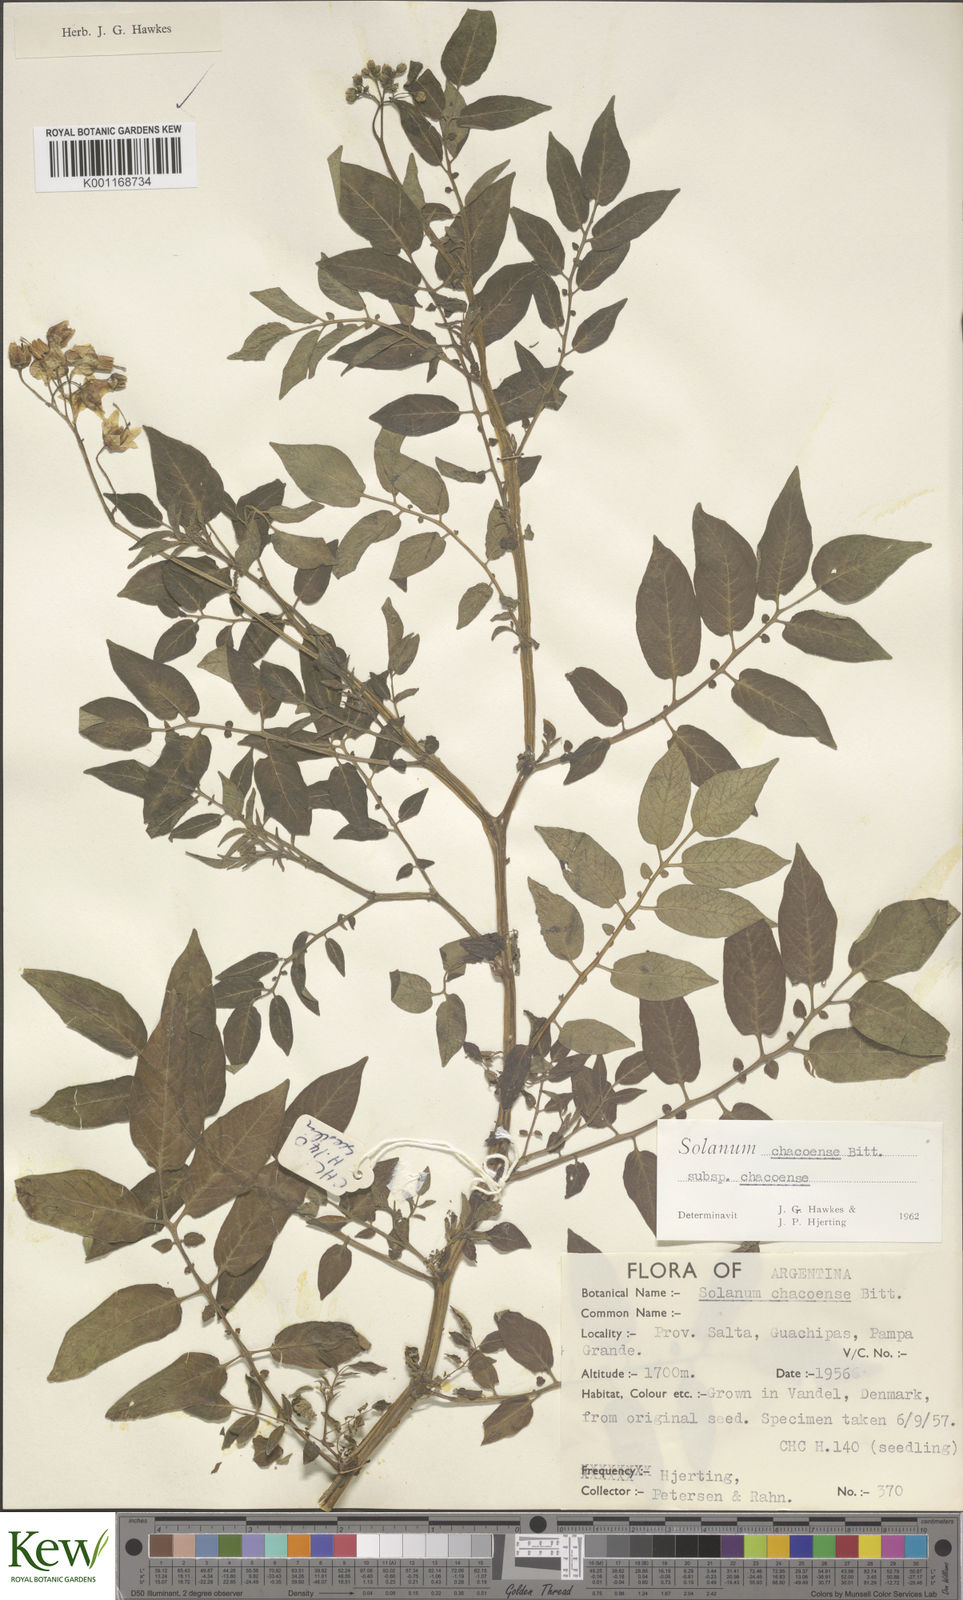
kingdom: Plantae
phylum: Tracheophyta
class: Magnoliopsida
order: Solanales
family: Solanaceae
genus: Solanum
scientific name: Solanum chacoense
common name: Chaco potato
